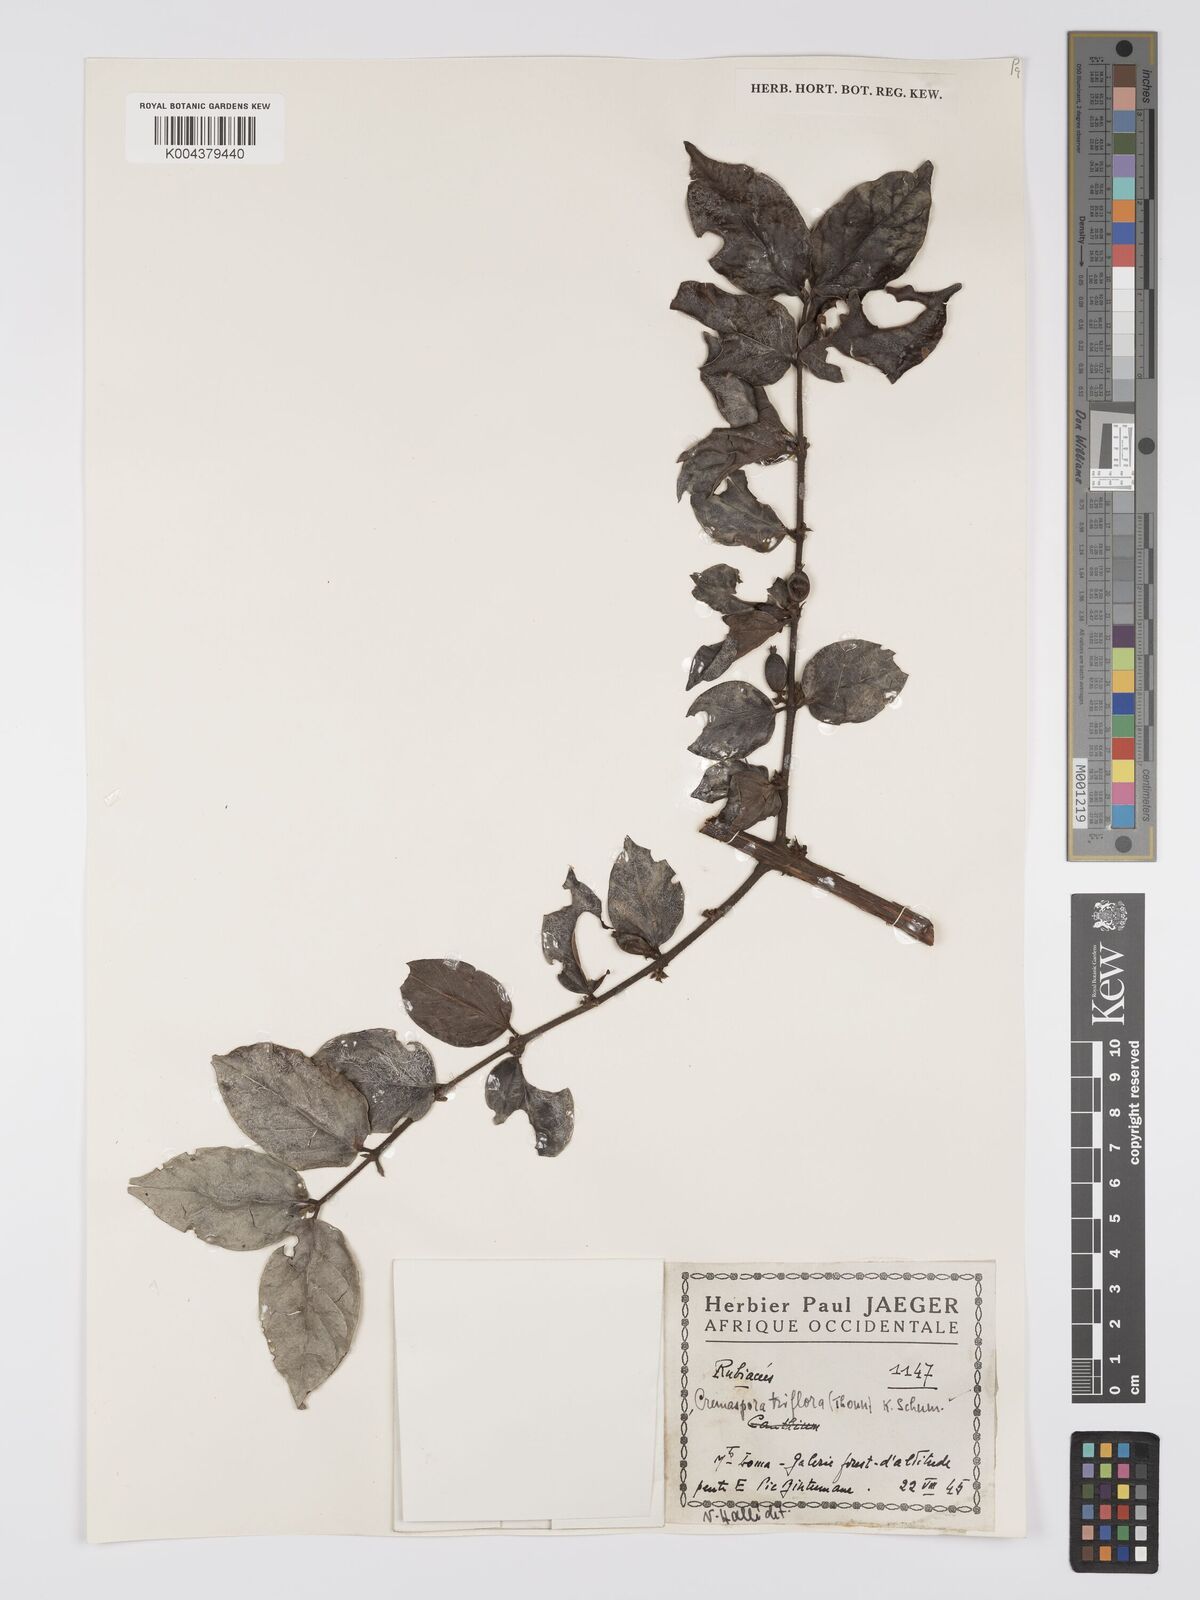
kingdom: Plantae
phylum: Tracheophyta
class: Magnoliopsida
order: Gentianales
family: Rubiaceae
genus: Cremaspora
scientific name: Cremaspora triflora
